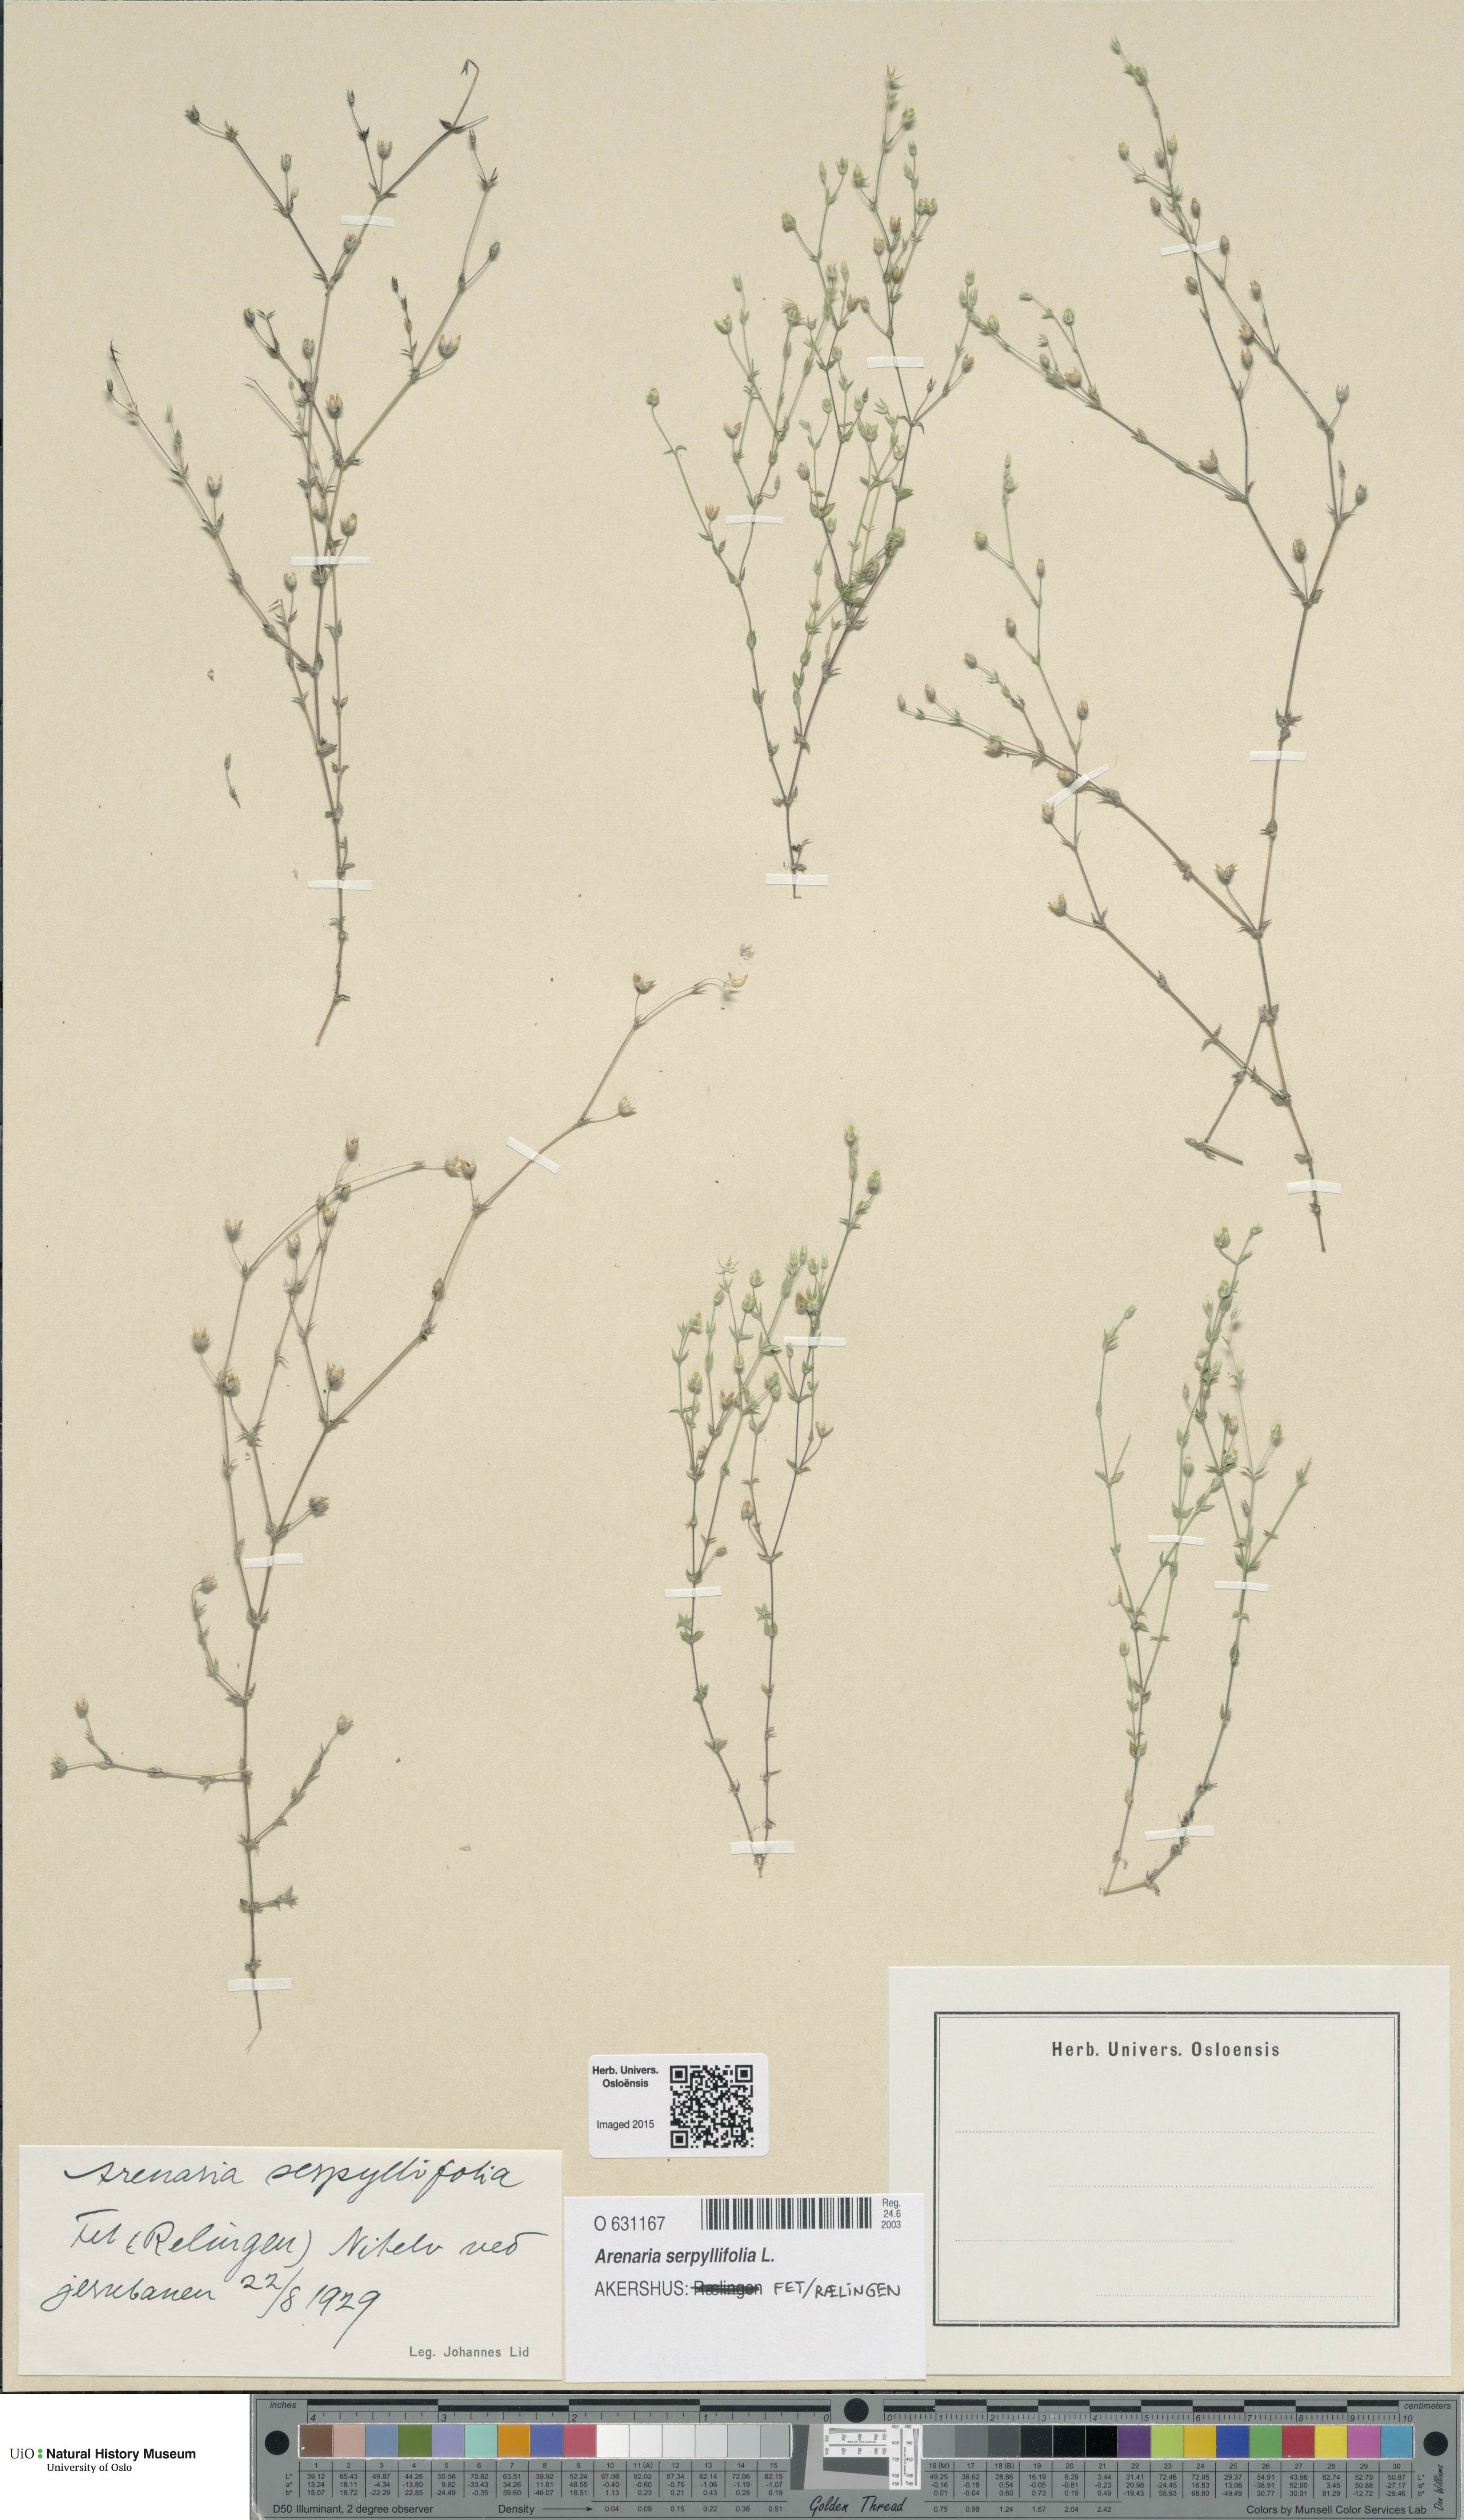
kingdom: Plantae
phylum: Tracheophyta
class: Magnoliopsida
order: Caryophyllales
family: Caryophyllaceae
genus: Arenaria
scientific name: Arenaria serpyllifolia
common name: Thyme-leaved sandwort
